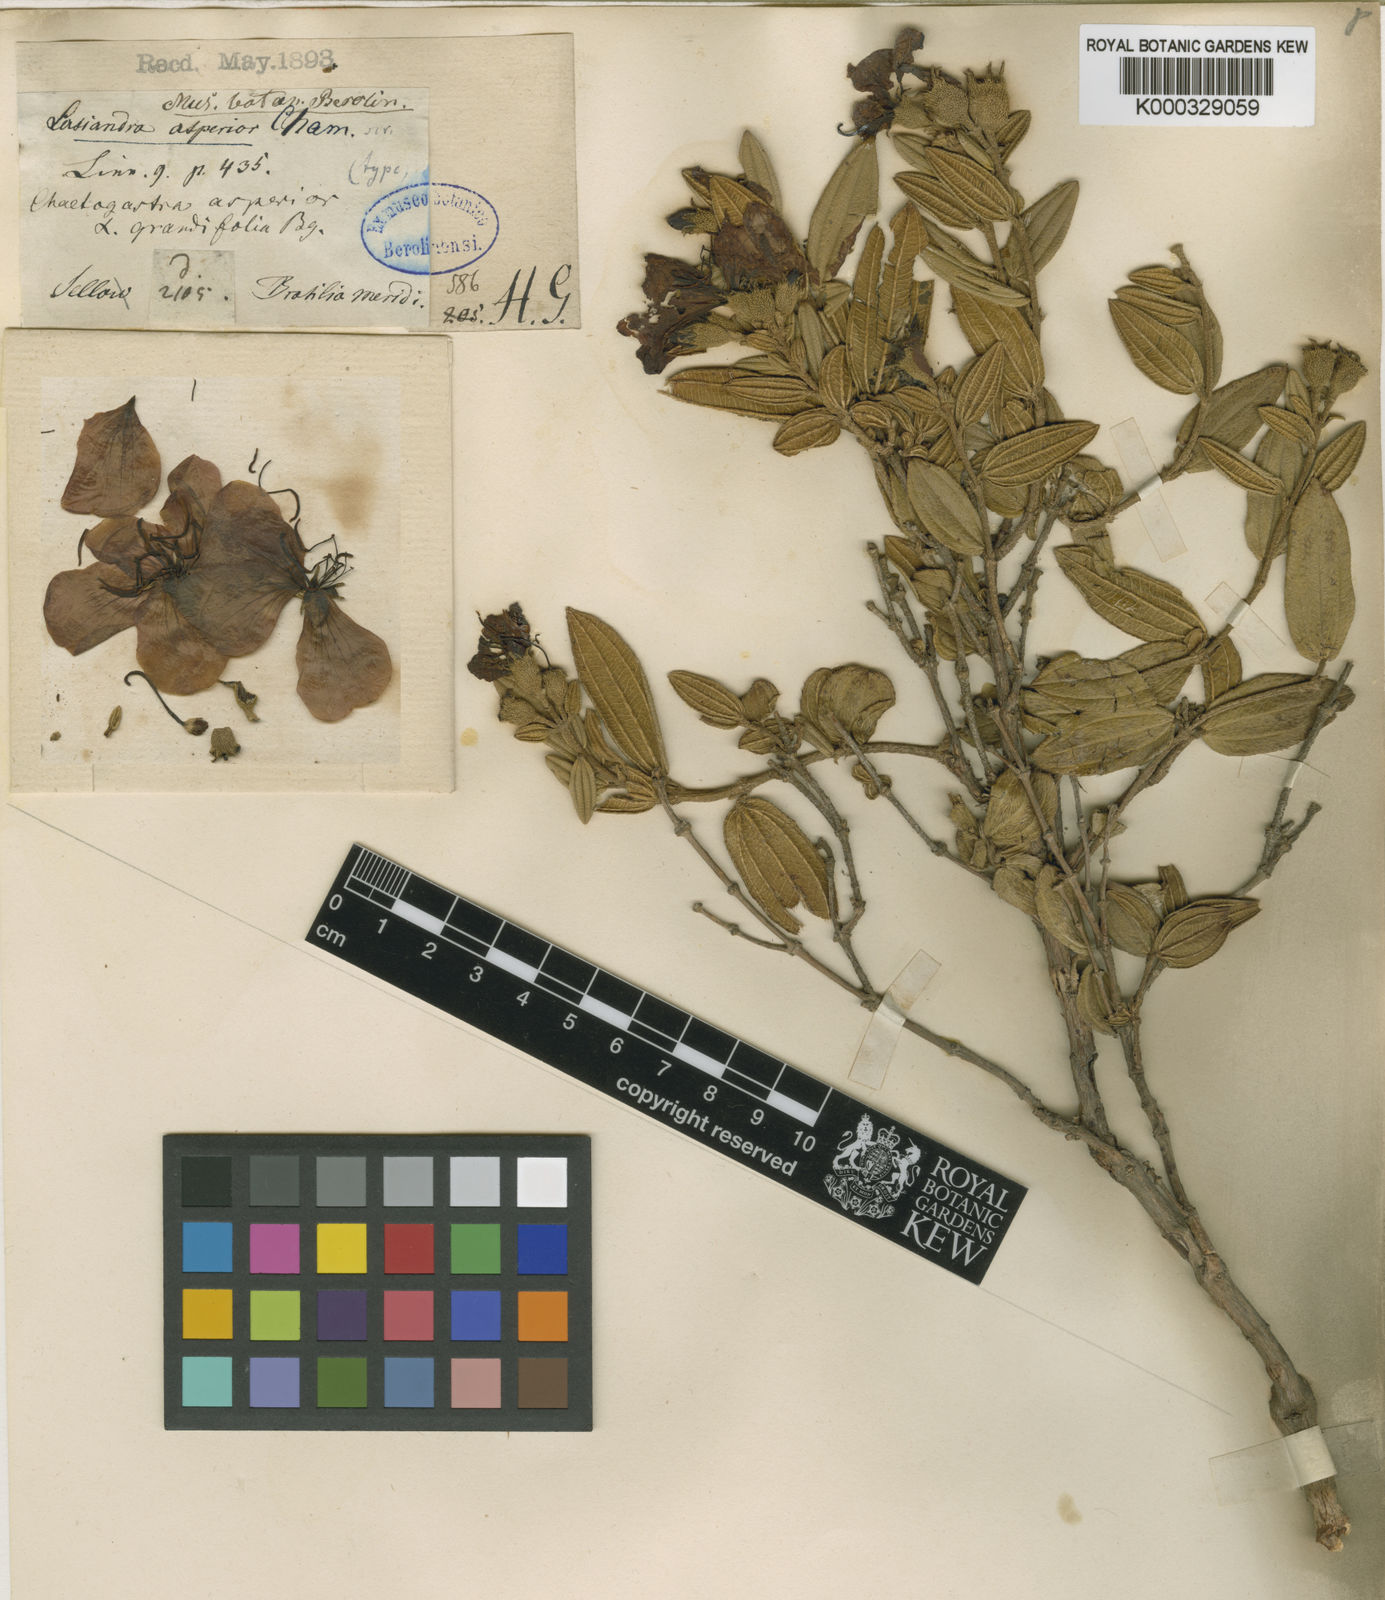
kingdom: Plantae
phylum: Tracheophyta
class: Magnoliopsida
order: Myrtales
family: Melastomataceae
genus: Pleroma
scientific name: Pleroma asperius
